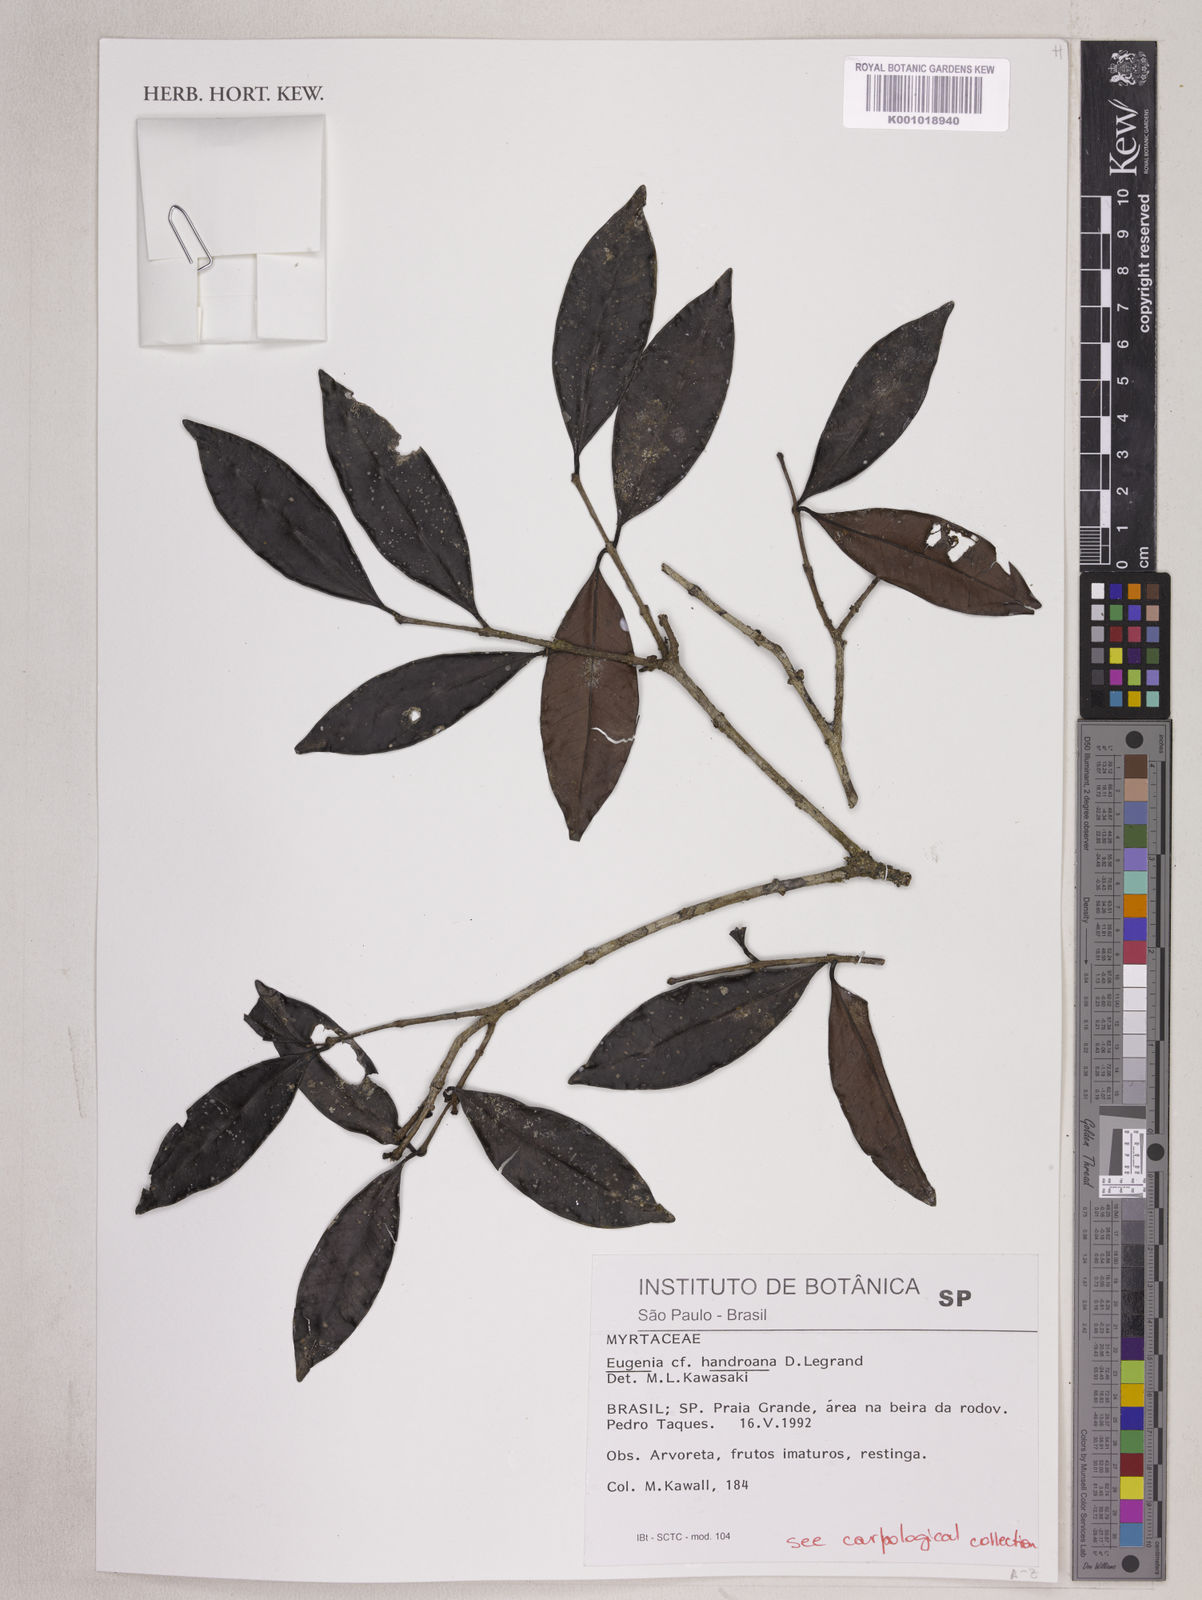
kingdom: Plantae
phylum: Tracheophyta
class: Magnoliopsida
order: Myrtales
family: Myrtaceae
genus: Eugenia
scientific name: Eugenia handroana
